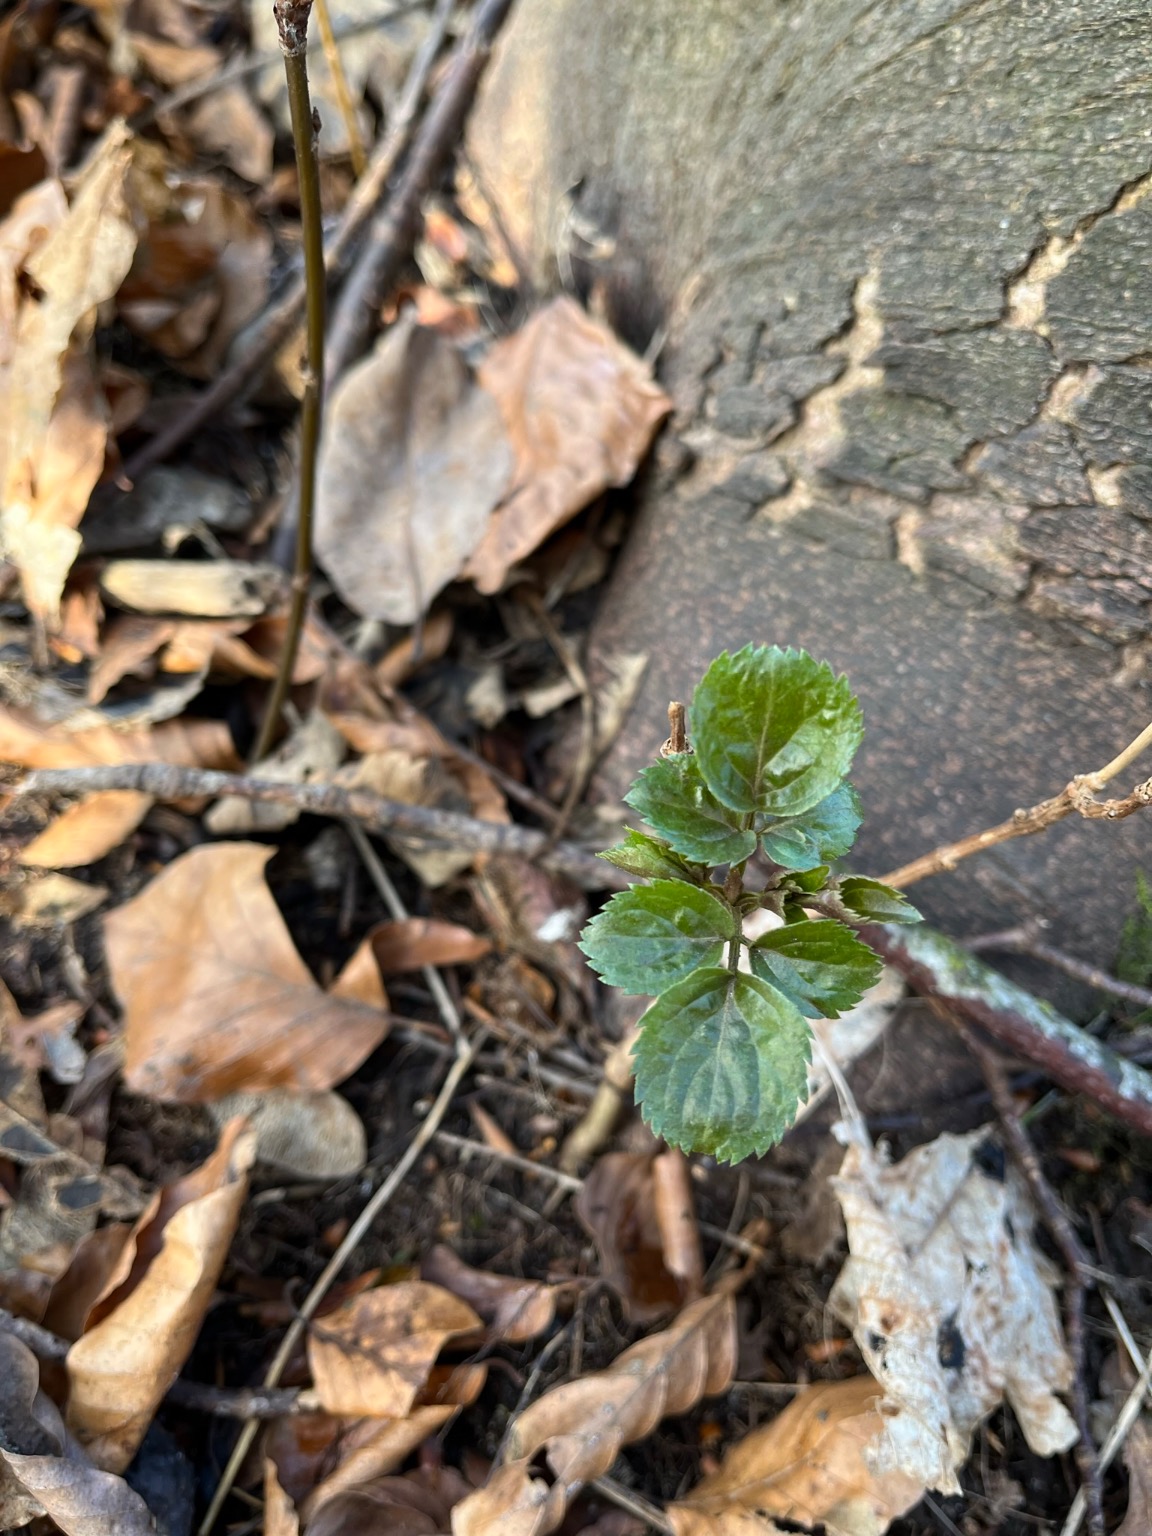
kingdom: Plantae
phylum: Tracheophyta
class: Magnoliopsida
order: Dipsacales
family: Viburnaceae
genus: Sambucus
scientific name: Sambucus nigra
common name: Almindelig hyld
